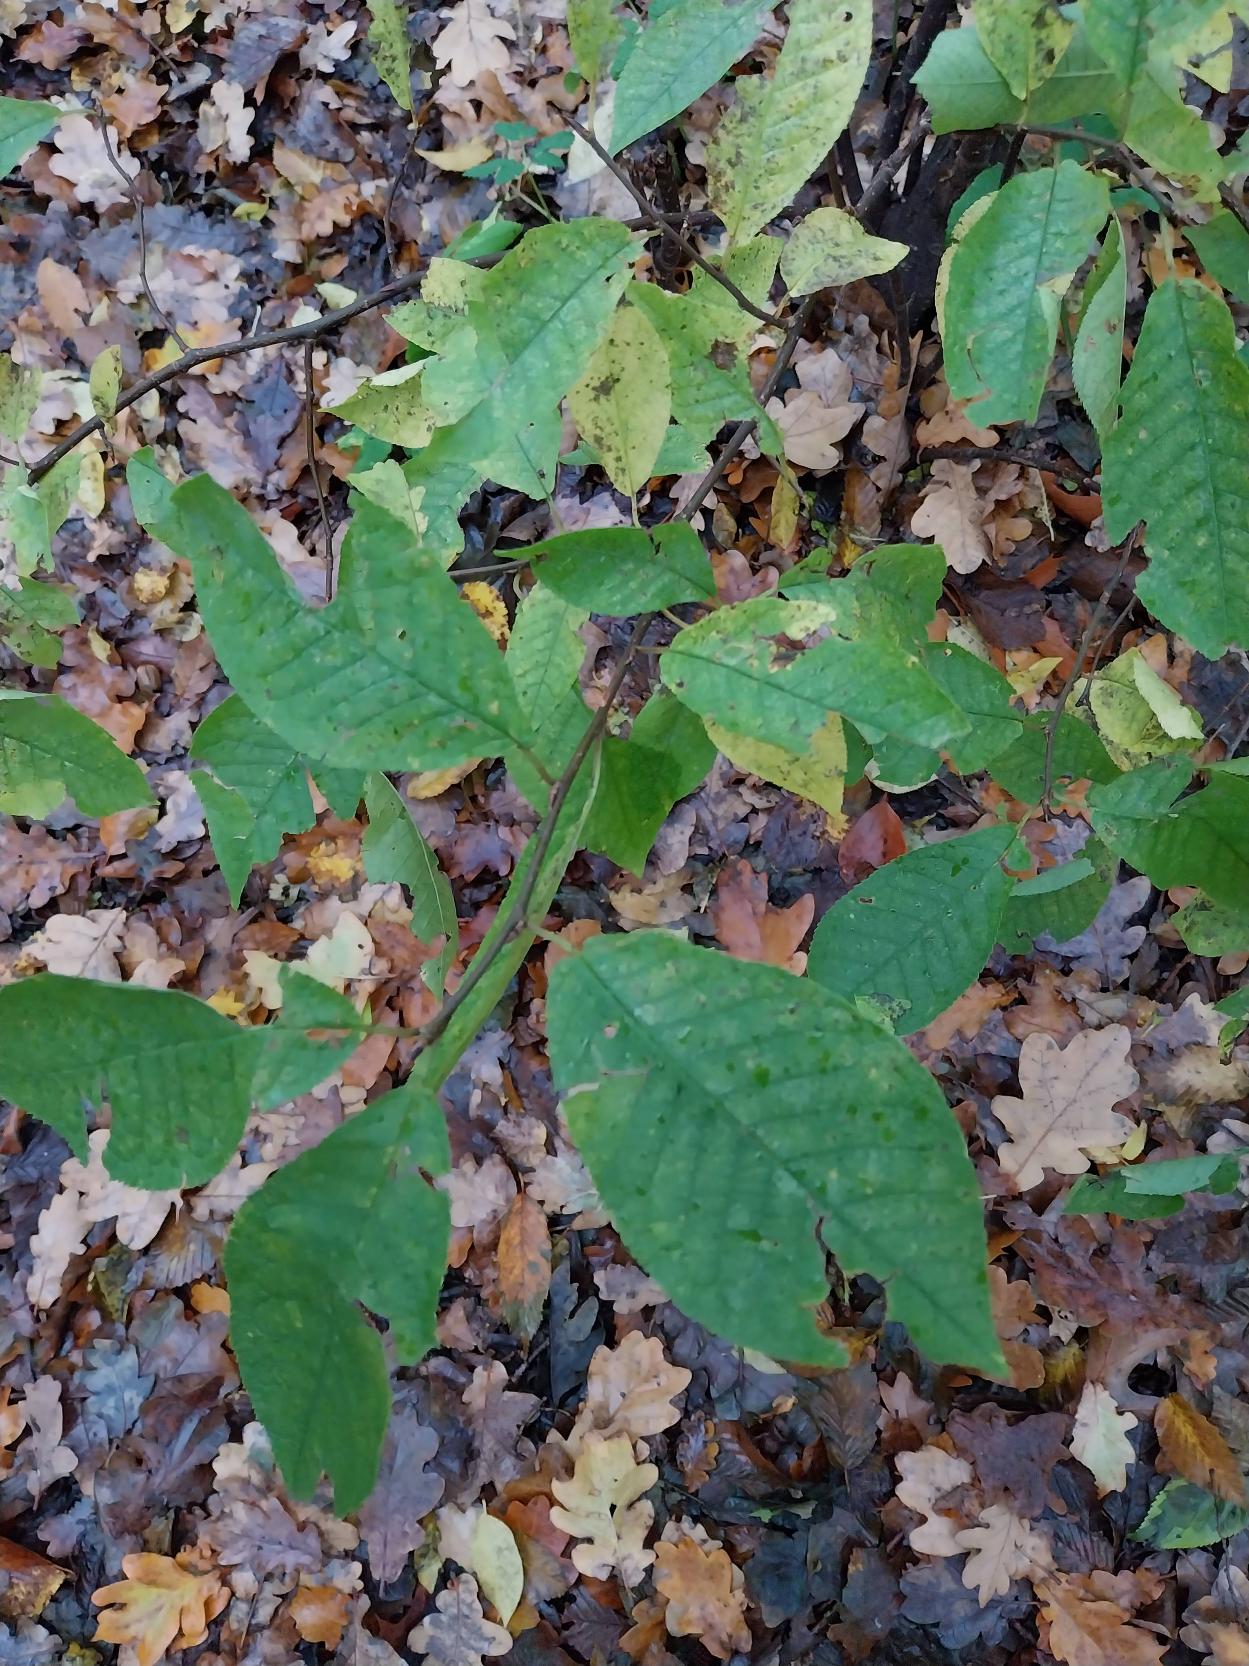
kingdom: Plantae
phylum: Tracheophyta
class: Magnoliopsida
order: Rosales
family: Rosaceae
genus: Prunus
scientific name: Prunus padus
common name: Almindelig hæg
